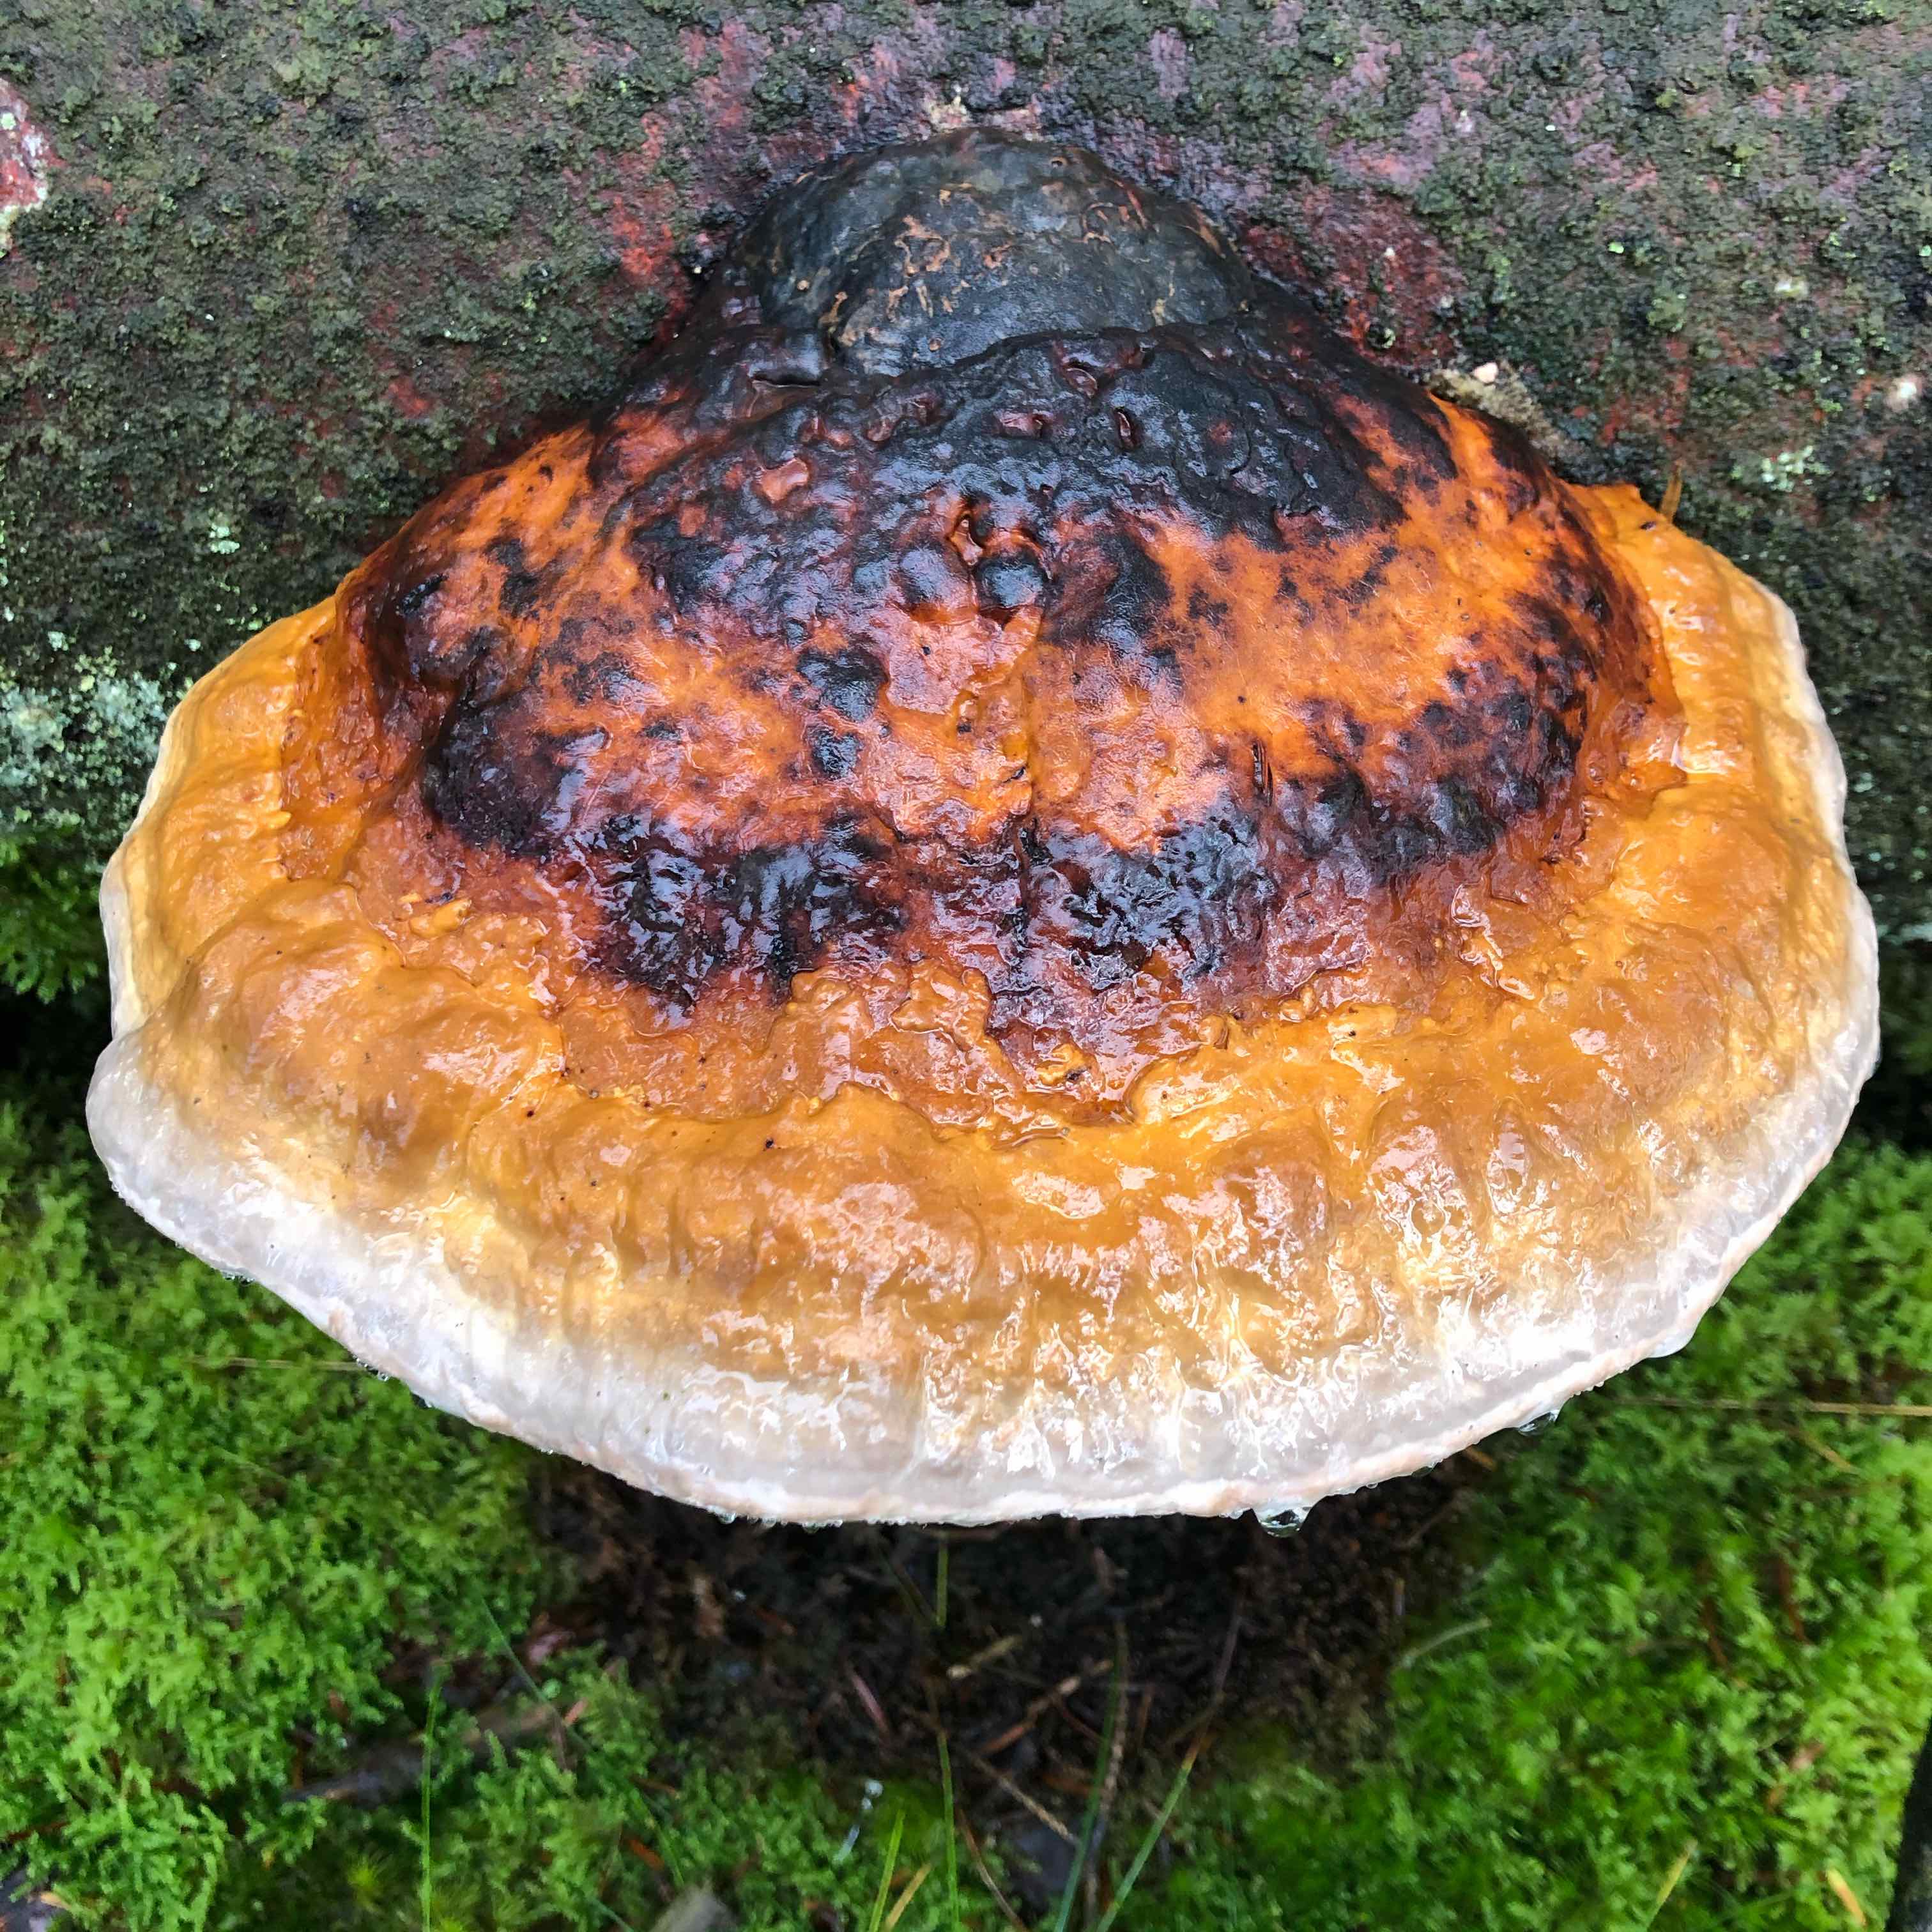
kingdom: Fungi
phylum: Basidiomycota
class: Agaricomycetes
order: Polyporales
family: Fomitopsidaceae
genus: Fomitopsis
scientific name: Fomitopsis pinicola
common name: randbæltet hovporesvamp
